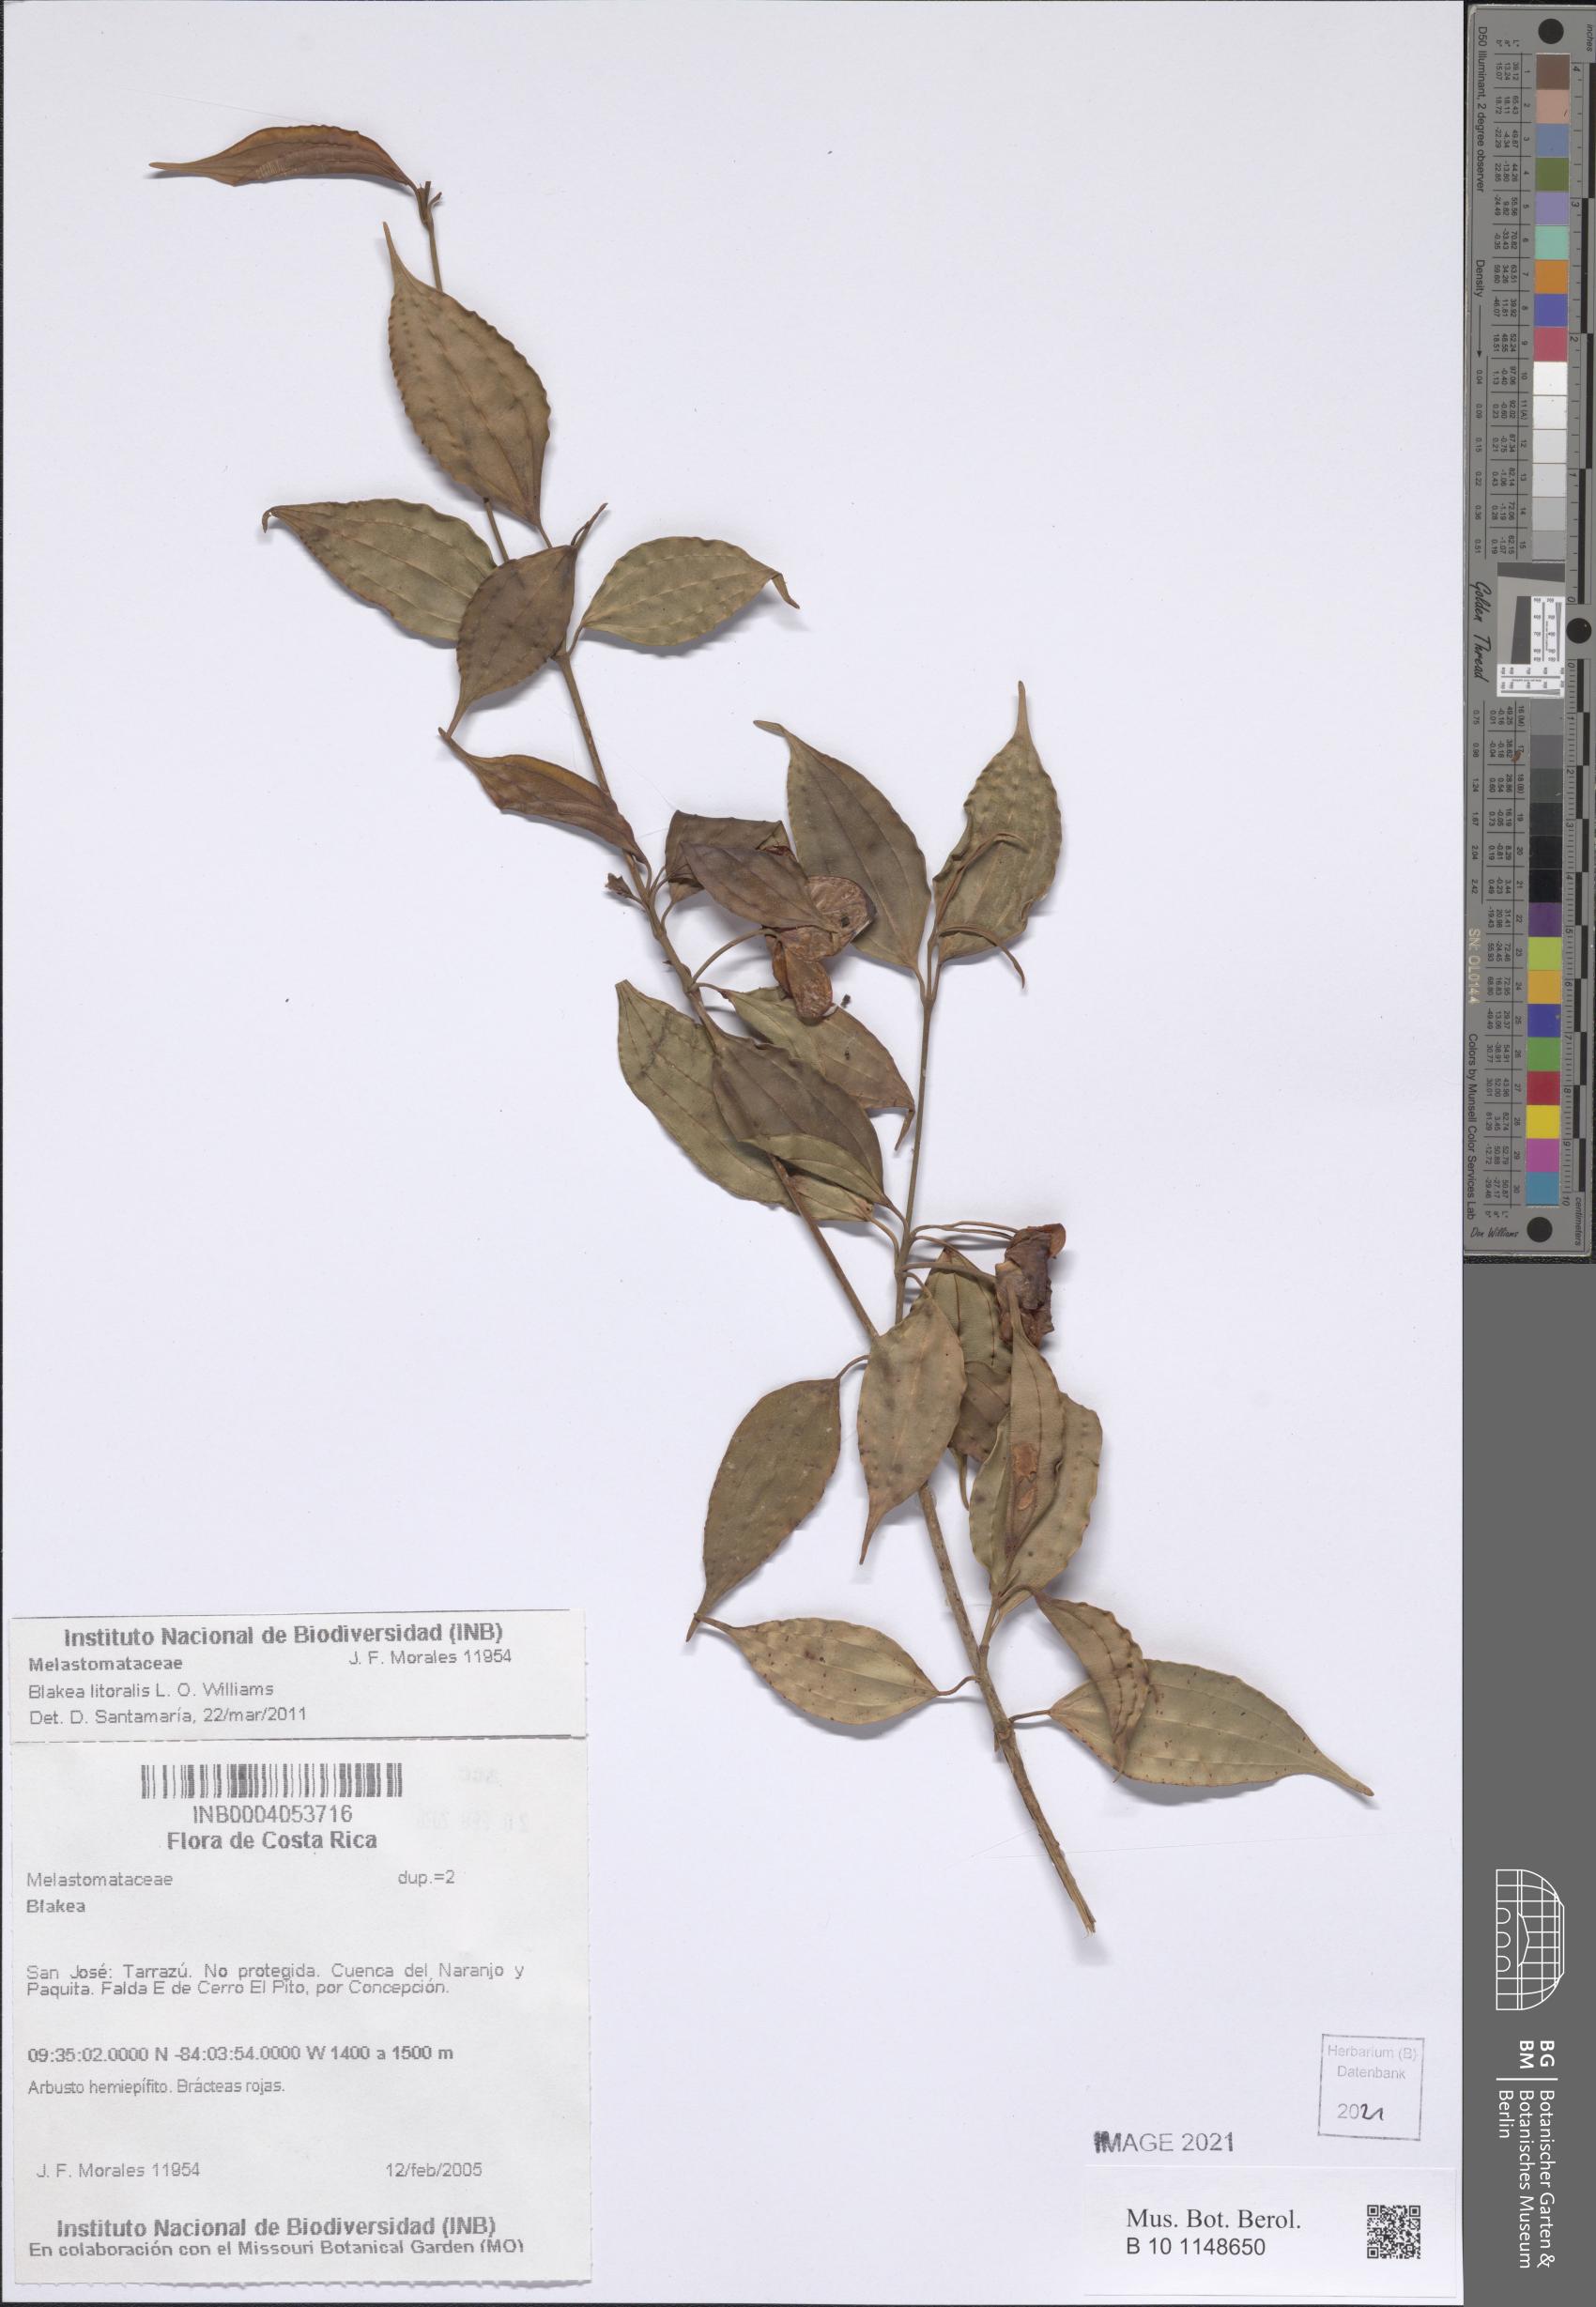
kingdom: Plantae
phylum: Tracheophyta
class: Magnoliopsida
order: Myrtales
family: Melastomataceae
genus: Blakea
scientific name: Blakea
